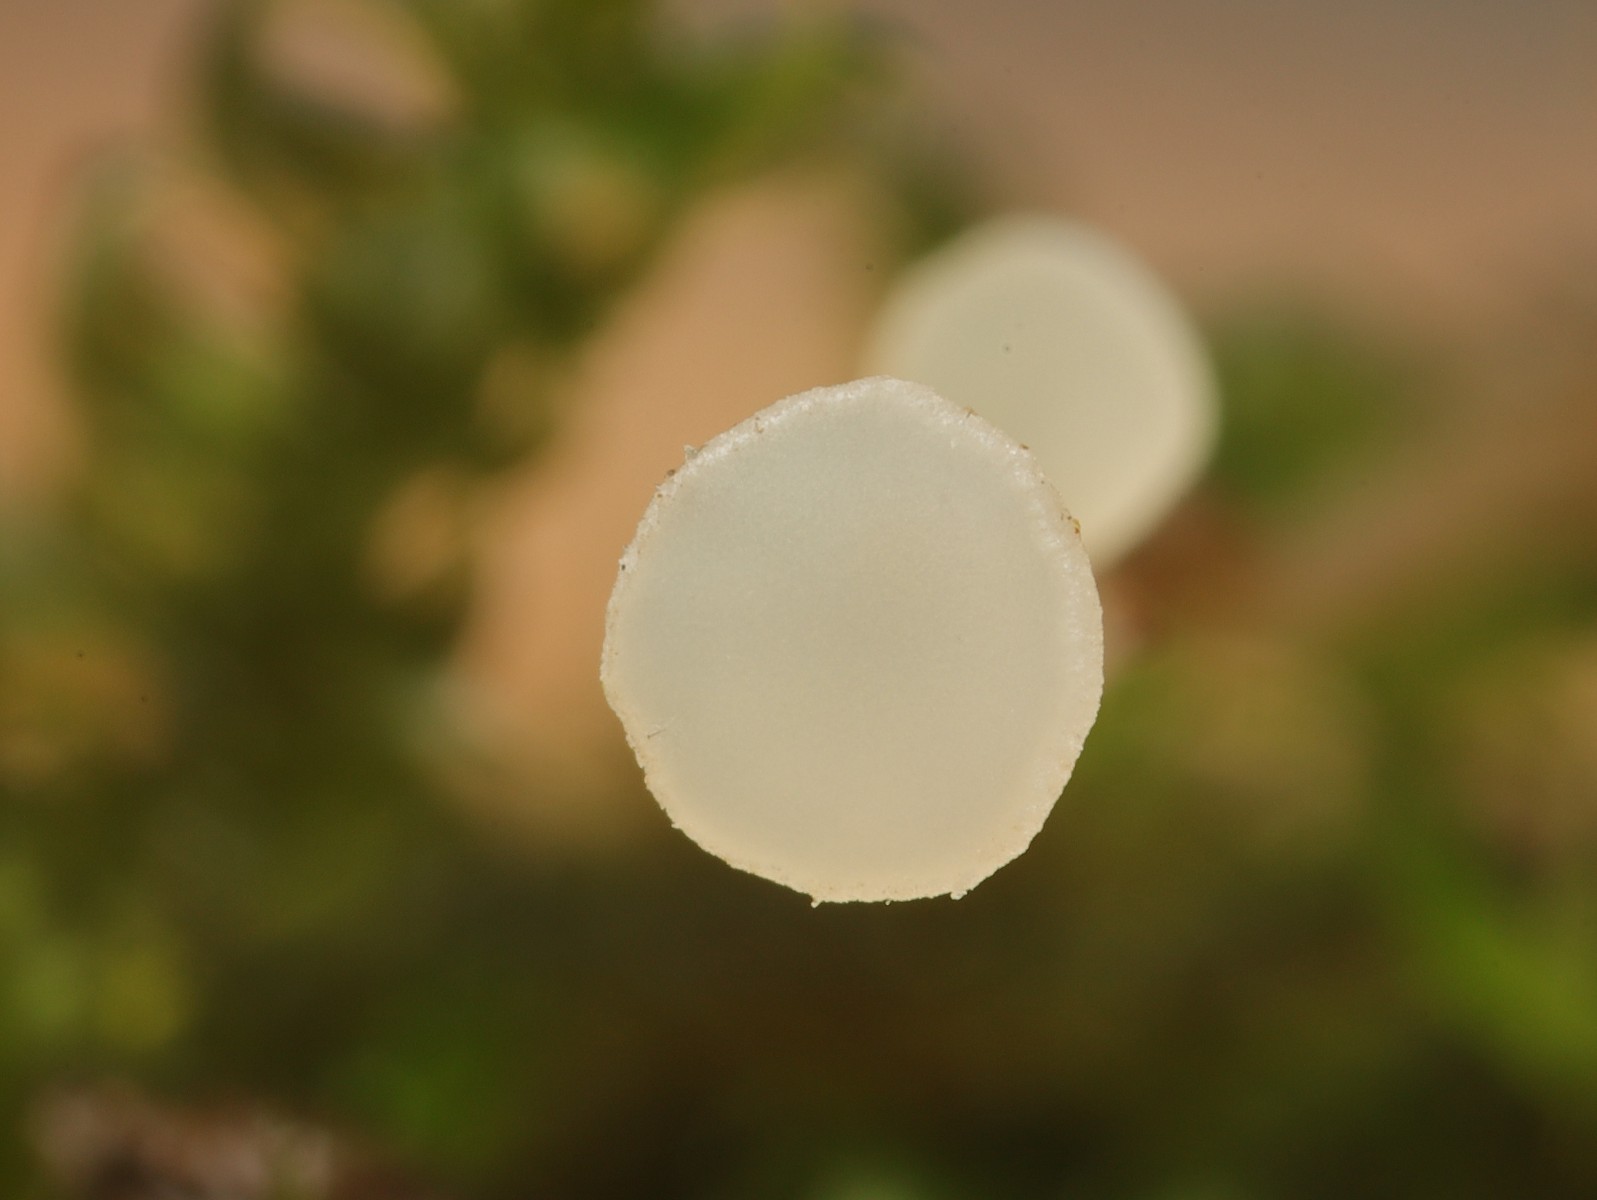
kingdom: Fungi
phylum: Ascomycota
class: Leotiomycetes
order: Helotiales
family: Helotiaceae
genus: Hymenoscyphus
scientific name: Hymenoscyphus seminis-alni
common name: ellefrø-stilkskive
